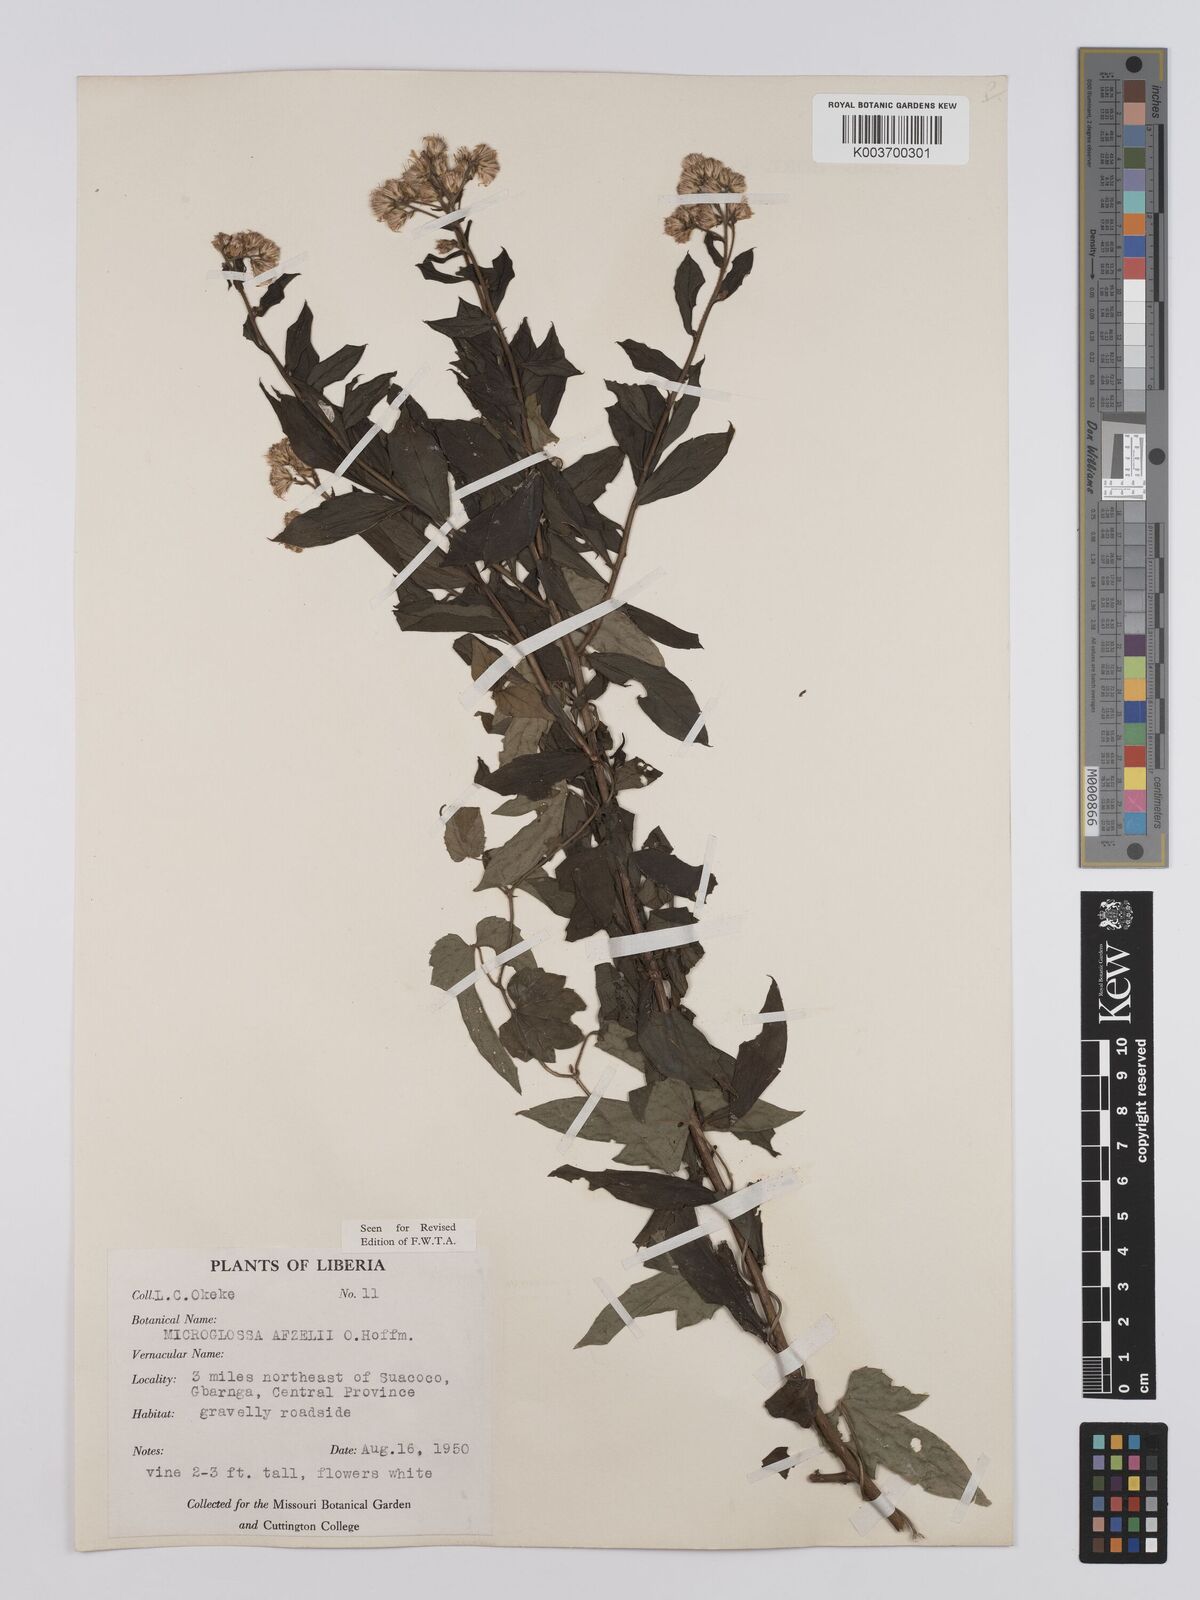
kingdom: Plantae
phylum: Tracheophyta
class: Magnoliopsida
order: Asterales
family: Asteraceae
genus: Microglossa
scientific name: Microglossa afzelii
